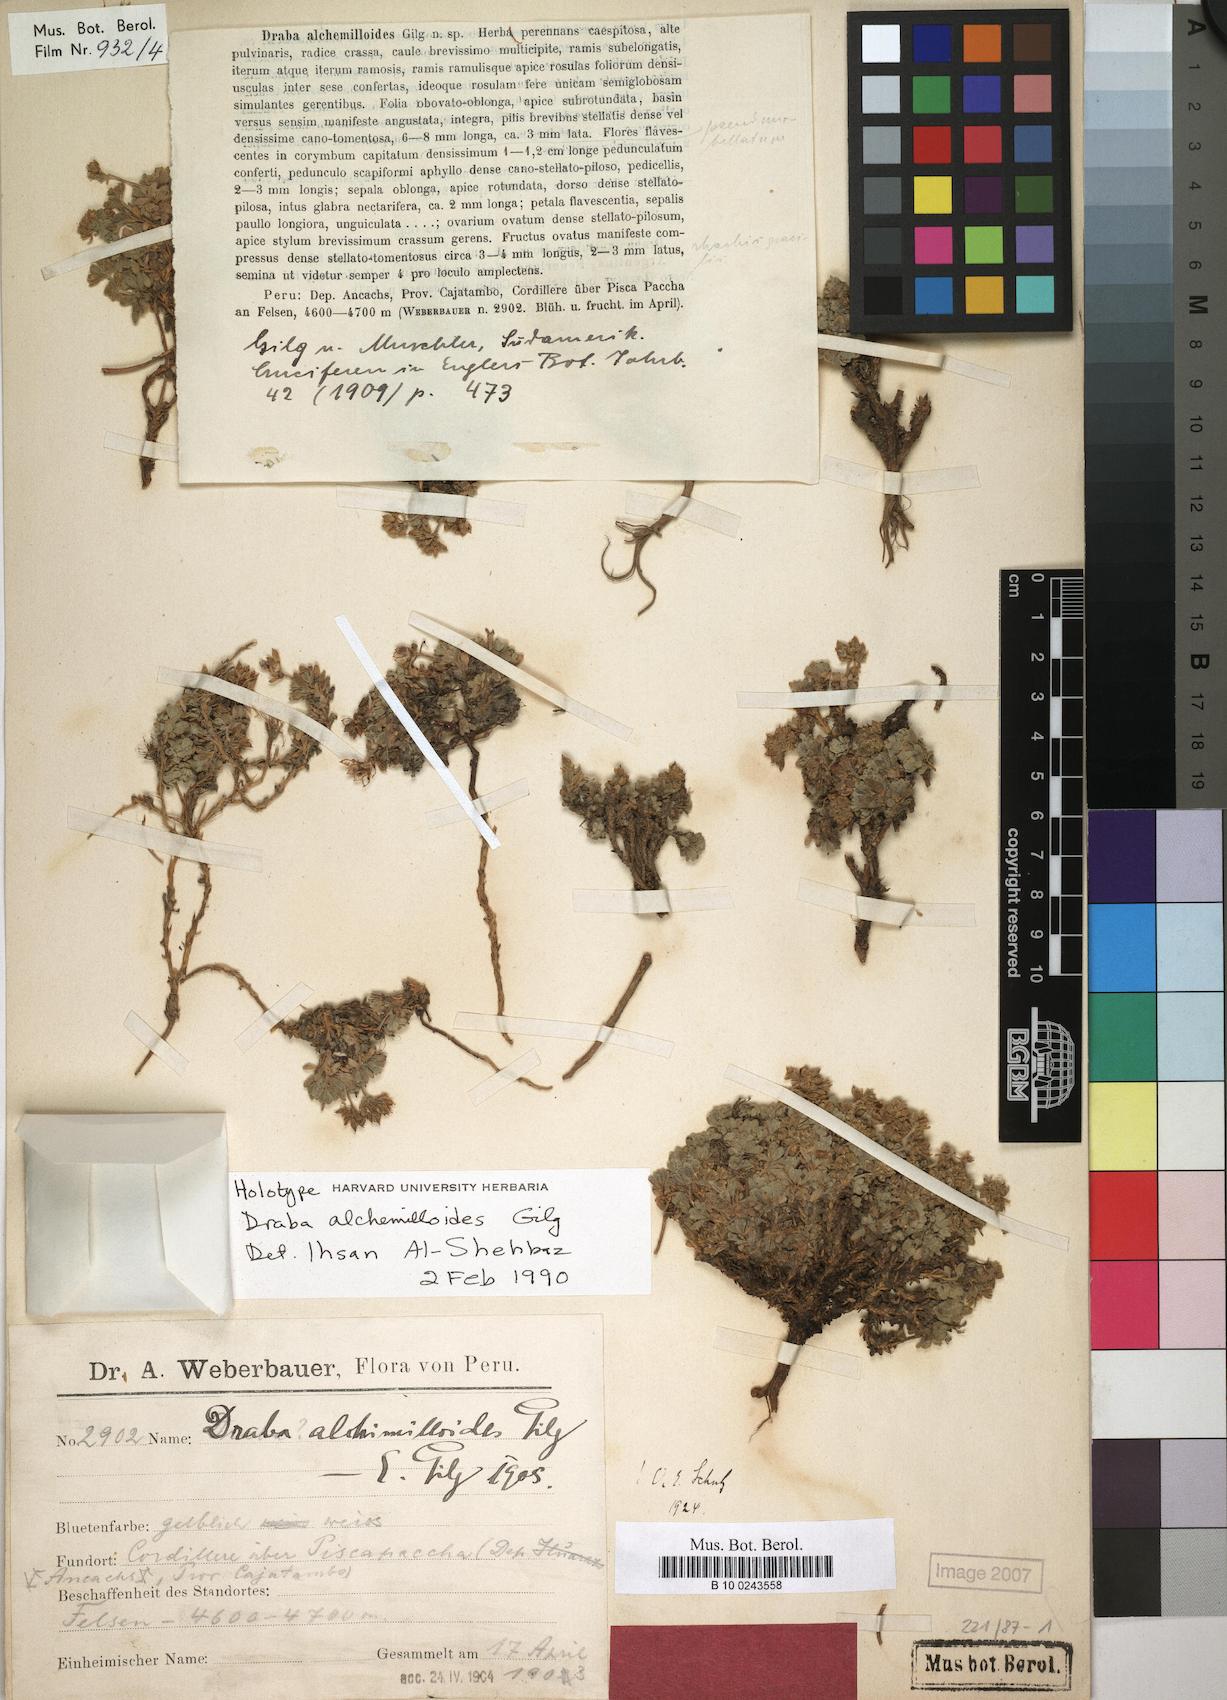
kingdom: Plantae
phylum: Tracheophyta
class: Magnoliopsida
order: Brassicales
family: Brassicaceae
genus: Draba
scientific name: Draba depressa
